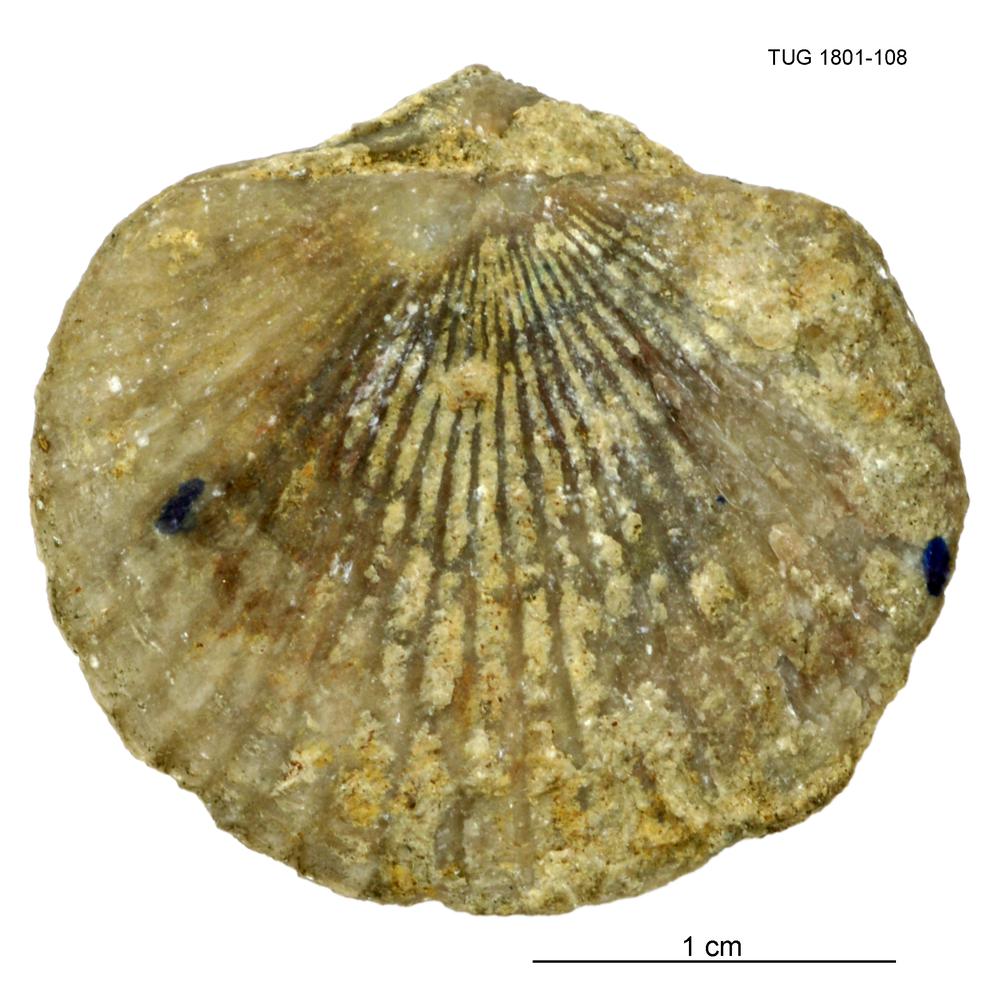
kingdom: Animalia
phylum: Brachiopoda
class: Rhynchonellata
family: Orthidae
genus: Cyrtonotella
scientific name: Cyrtonotella
